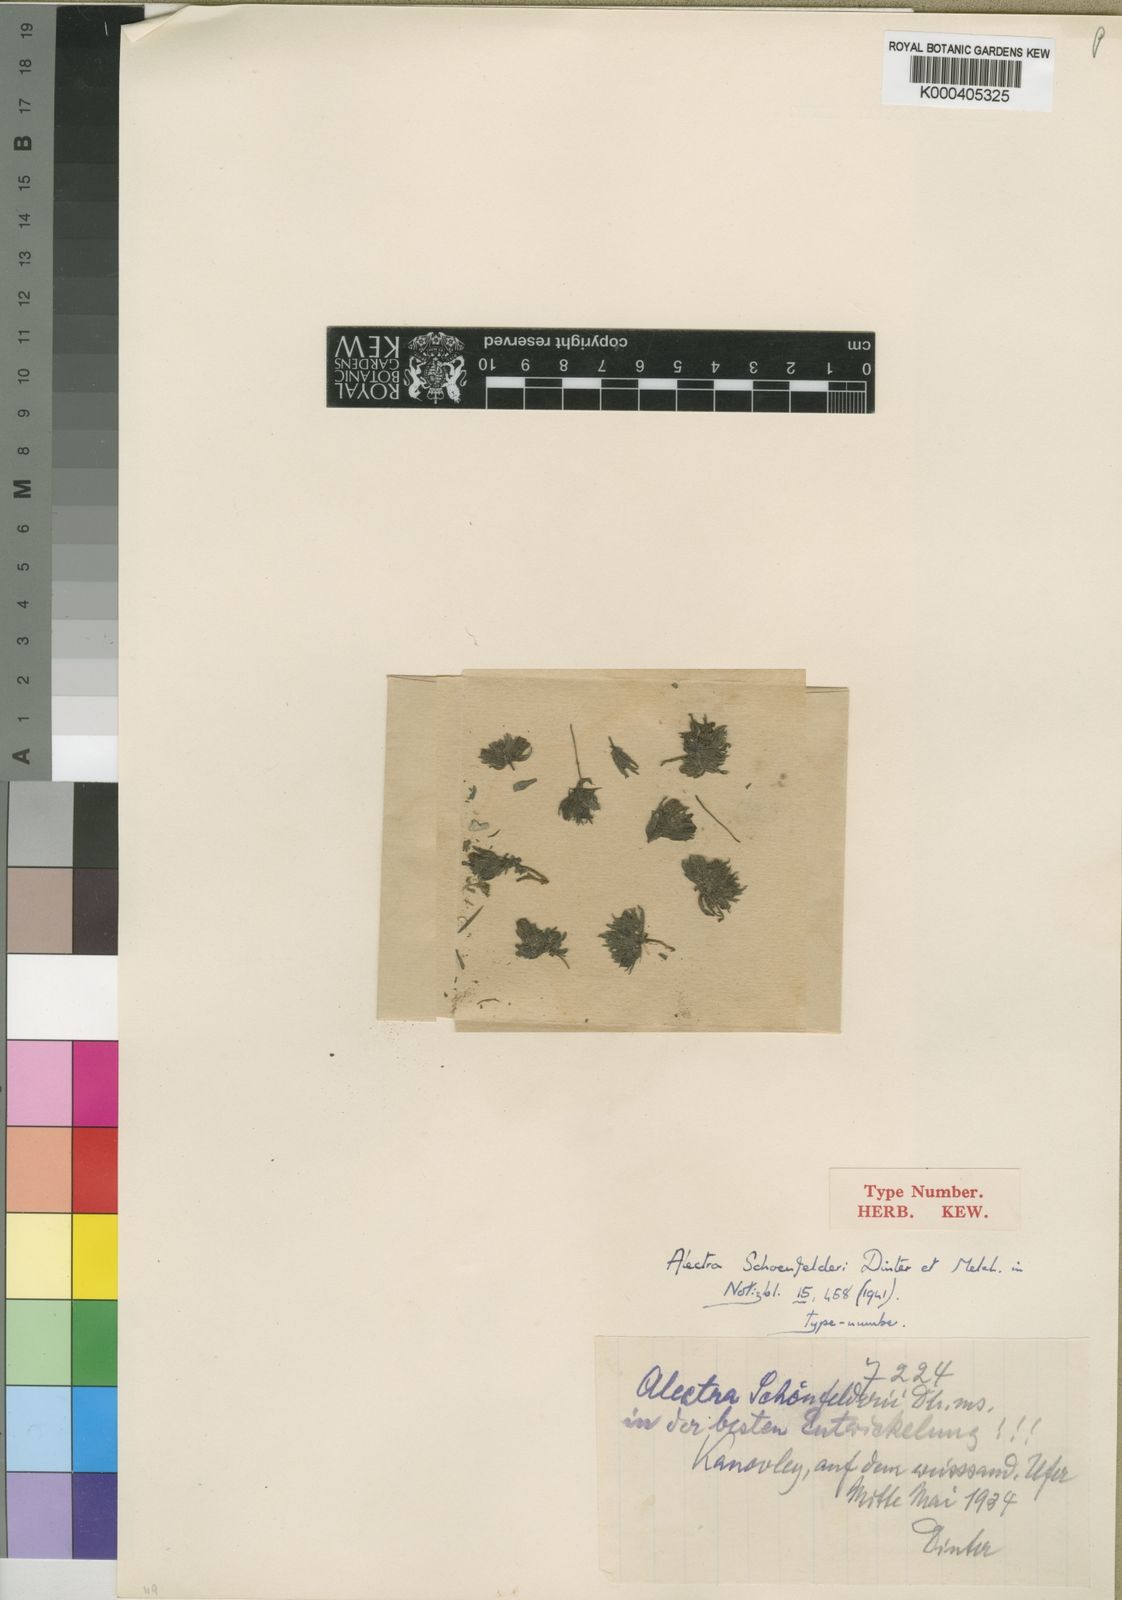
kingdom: Plantae
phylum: Tracheophyta
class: Magnoliopsida
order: Lamiales
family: Orobanchaceae
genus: Alectra
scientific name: Alectra schoenfelderi
